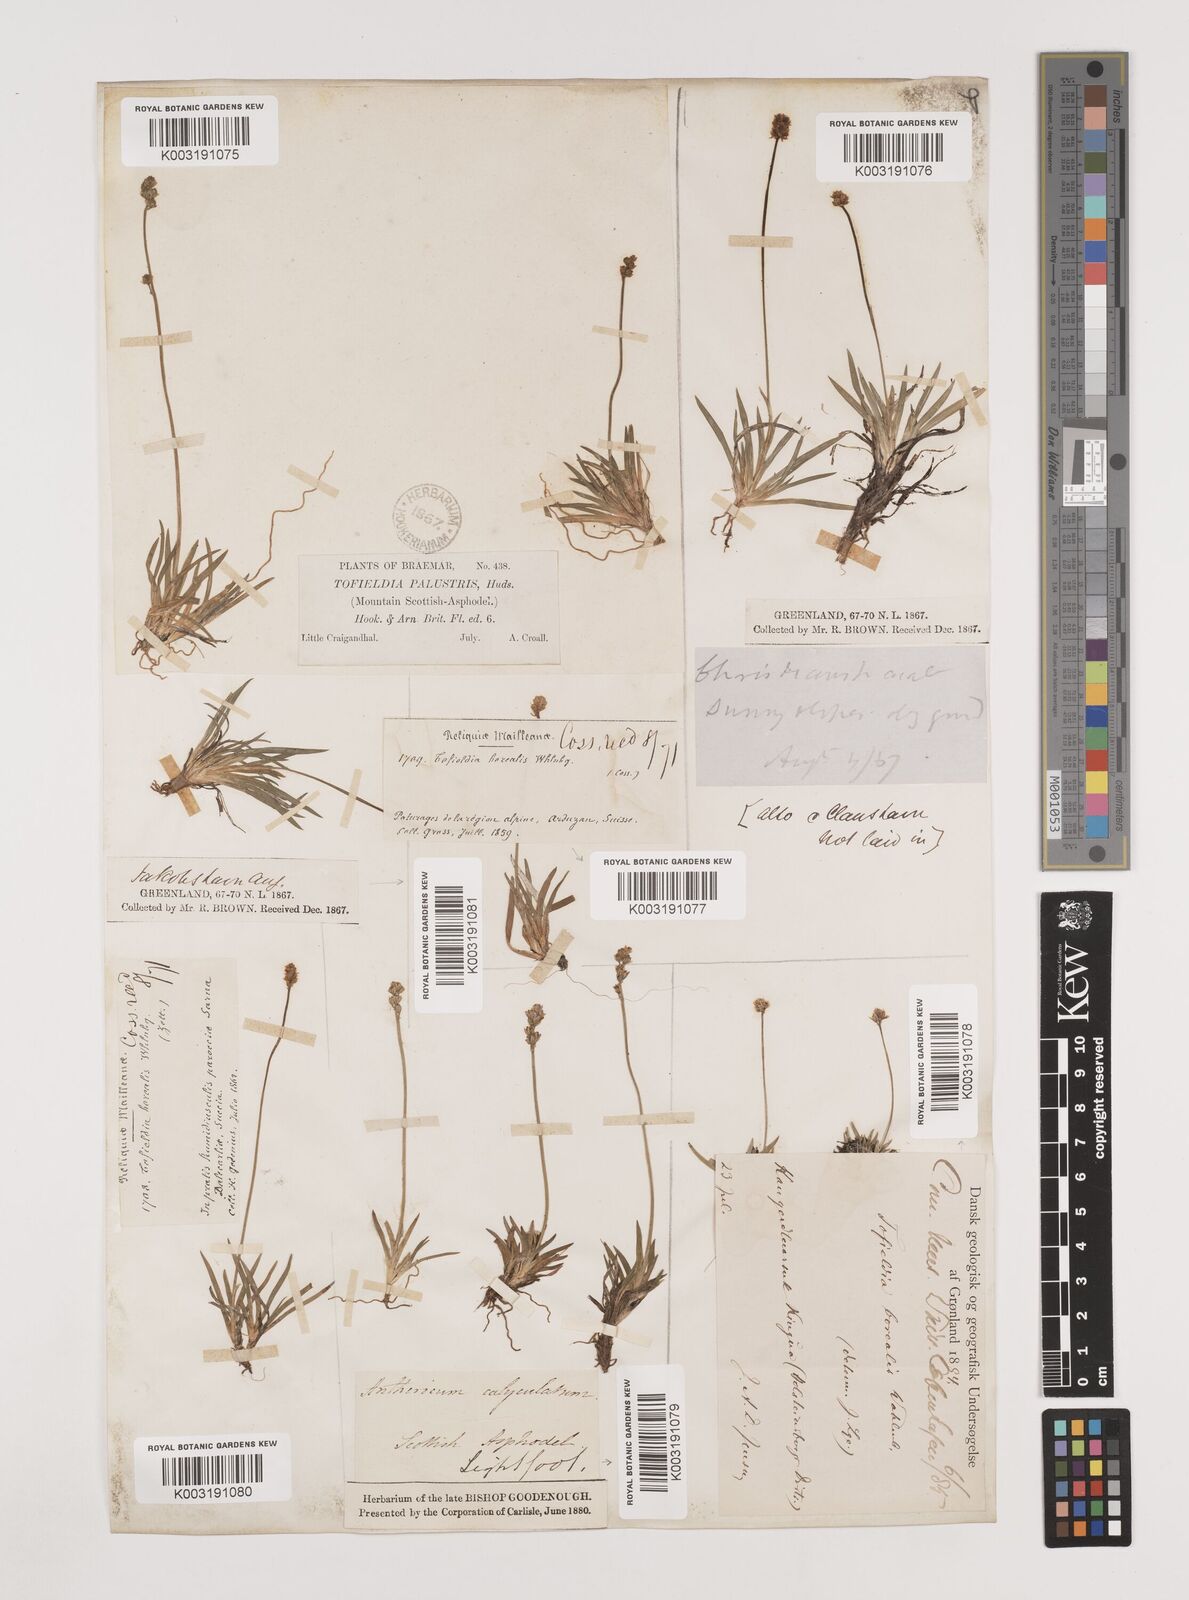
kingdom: Plantae
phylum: Tracheophyta
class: Liliopsida
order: Alismatales
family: Tofieldiaceae
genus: Tofieldia
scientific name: Tofieldia pusilla
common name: Scottish false asphodel
